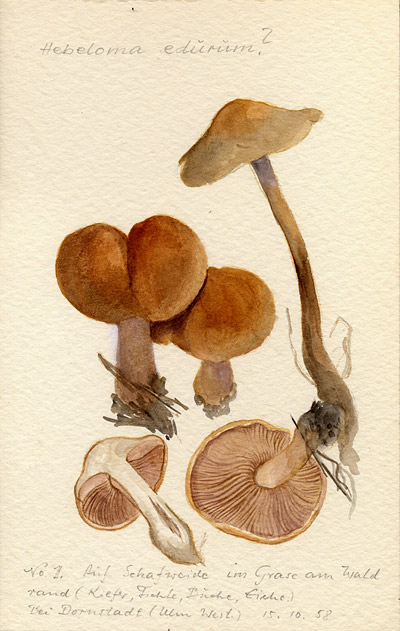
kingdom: Fungi
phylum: Basidiomycota
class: Agaricomycetes
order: Agaricales
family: Hymenogastraceae
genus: Hebeloma
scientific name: Hebeloma laterinum
